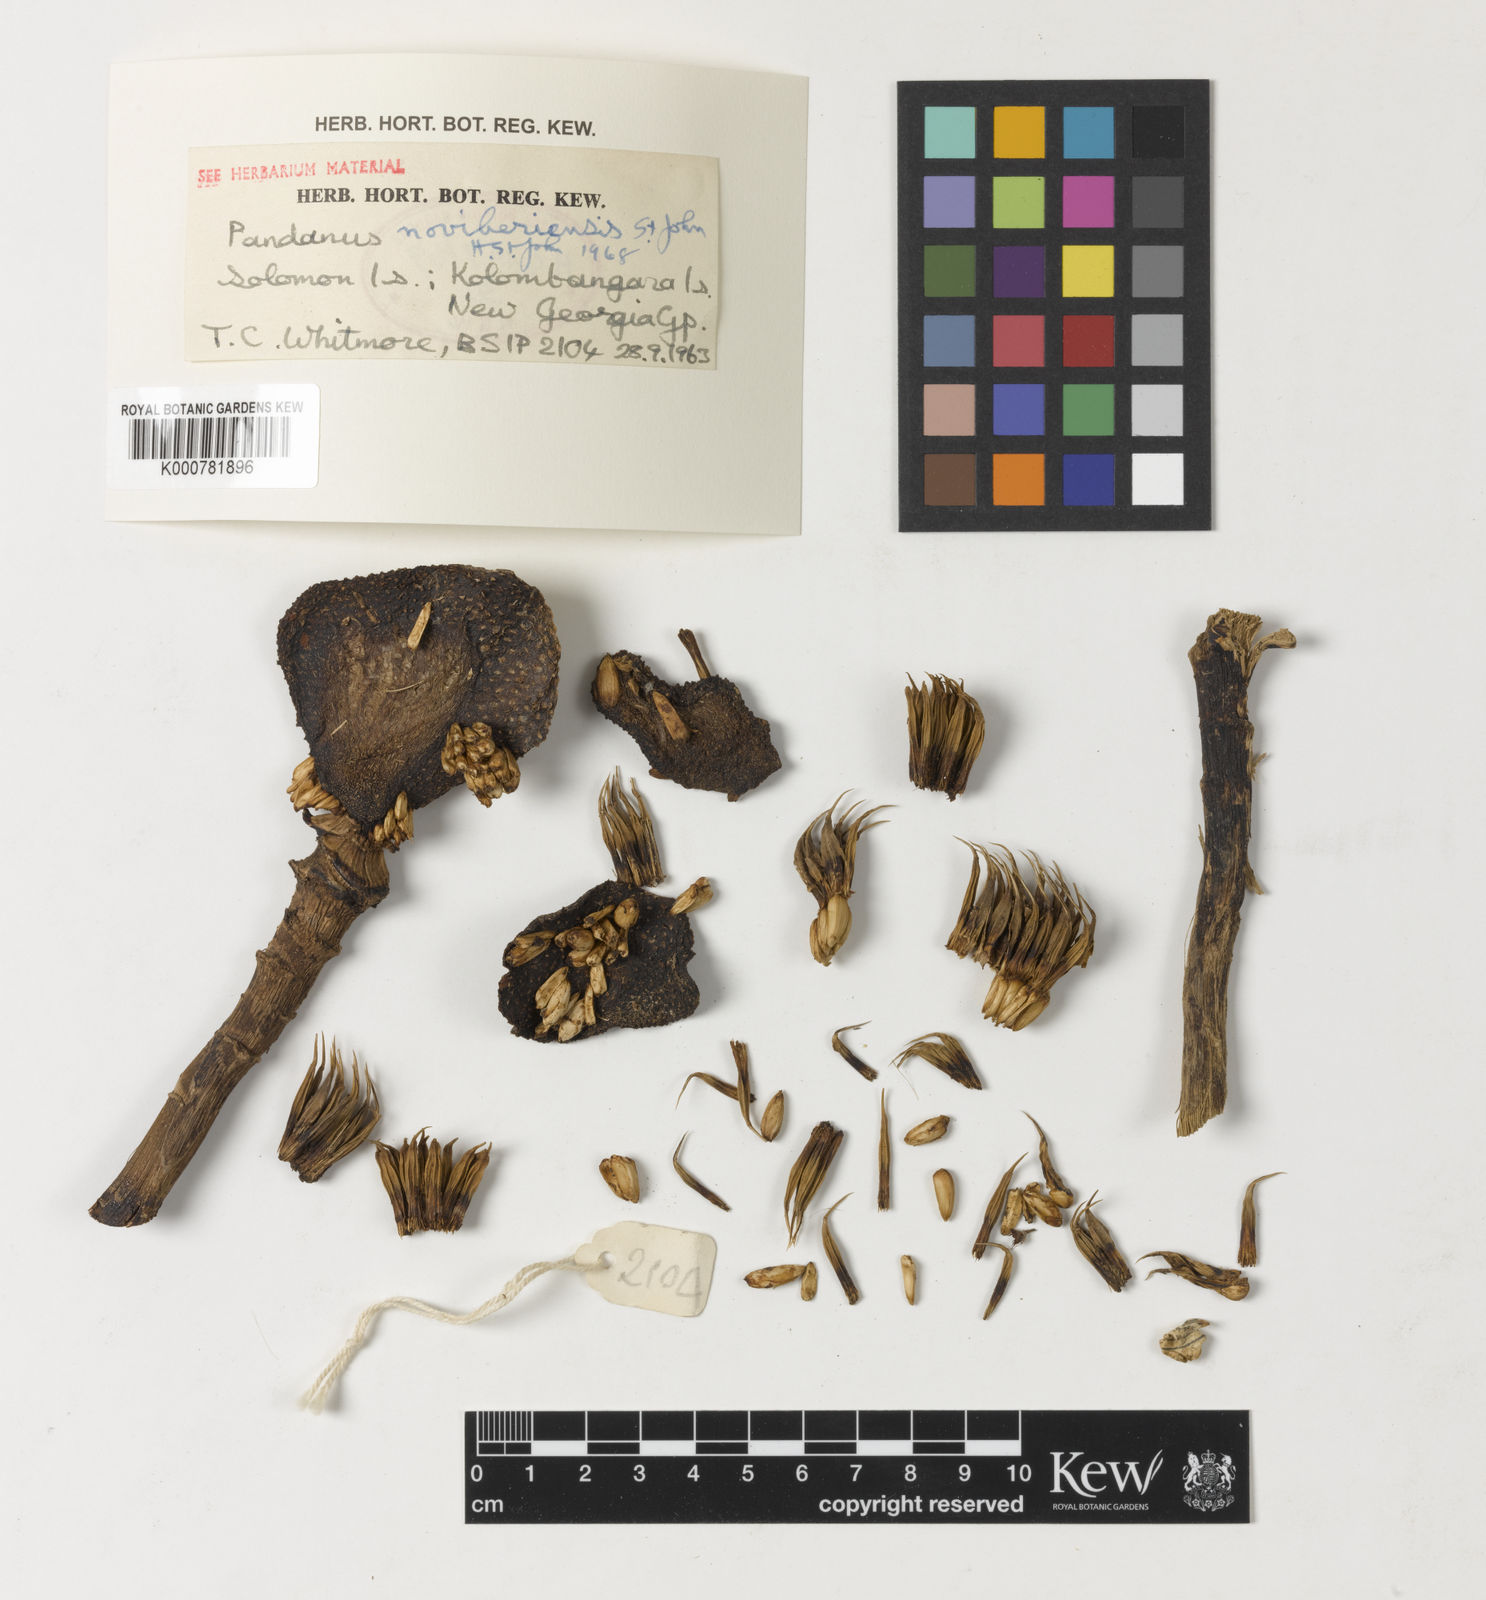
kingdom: Plantae
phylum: Tracheophyta
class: Liliopsida
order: Pandanales
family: Pandanaceae
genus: Pandanus
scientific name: Pandanus
